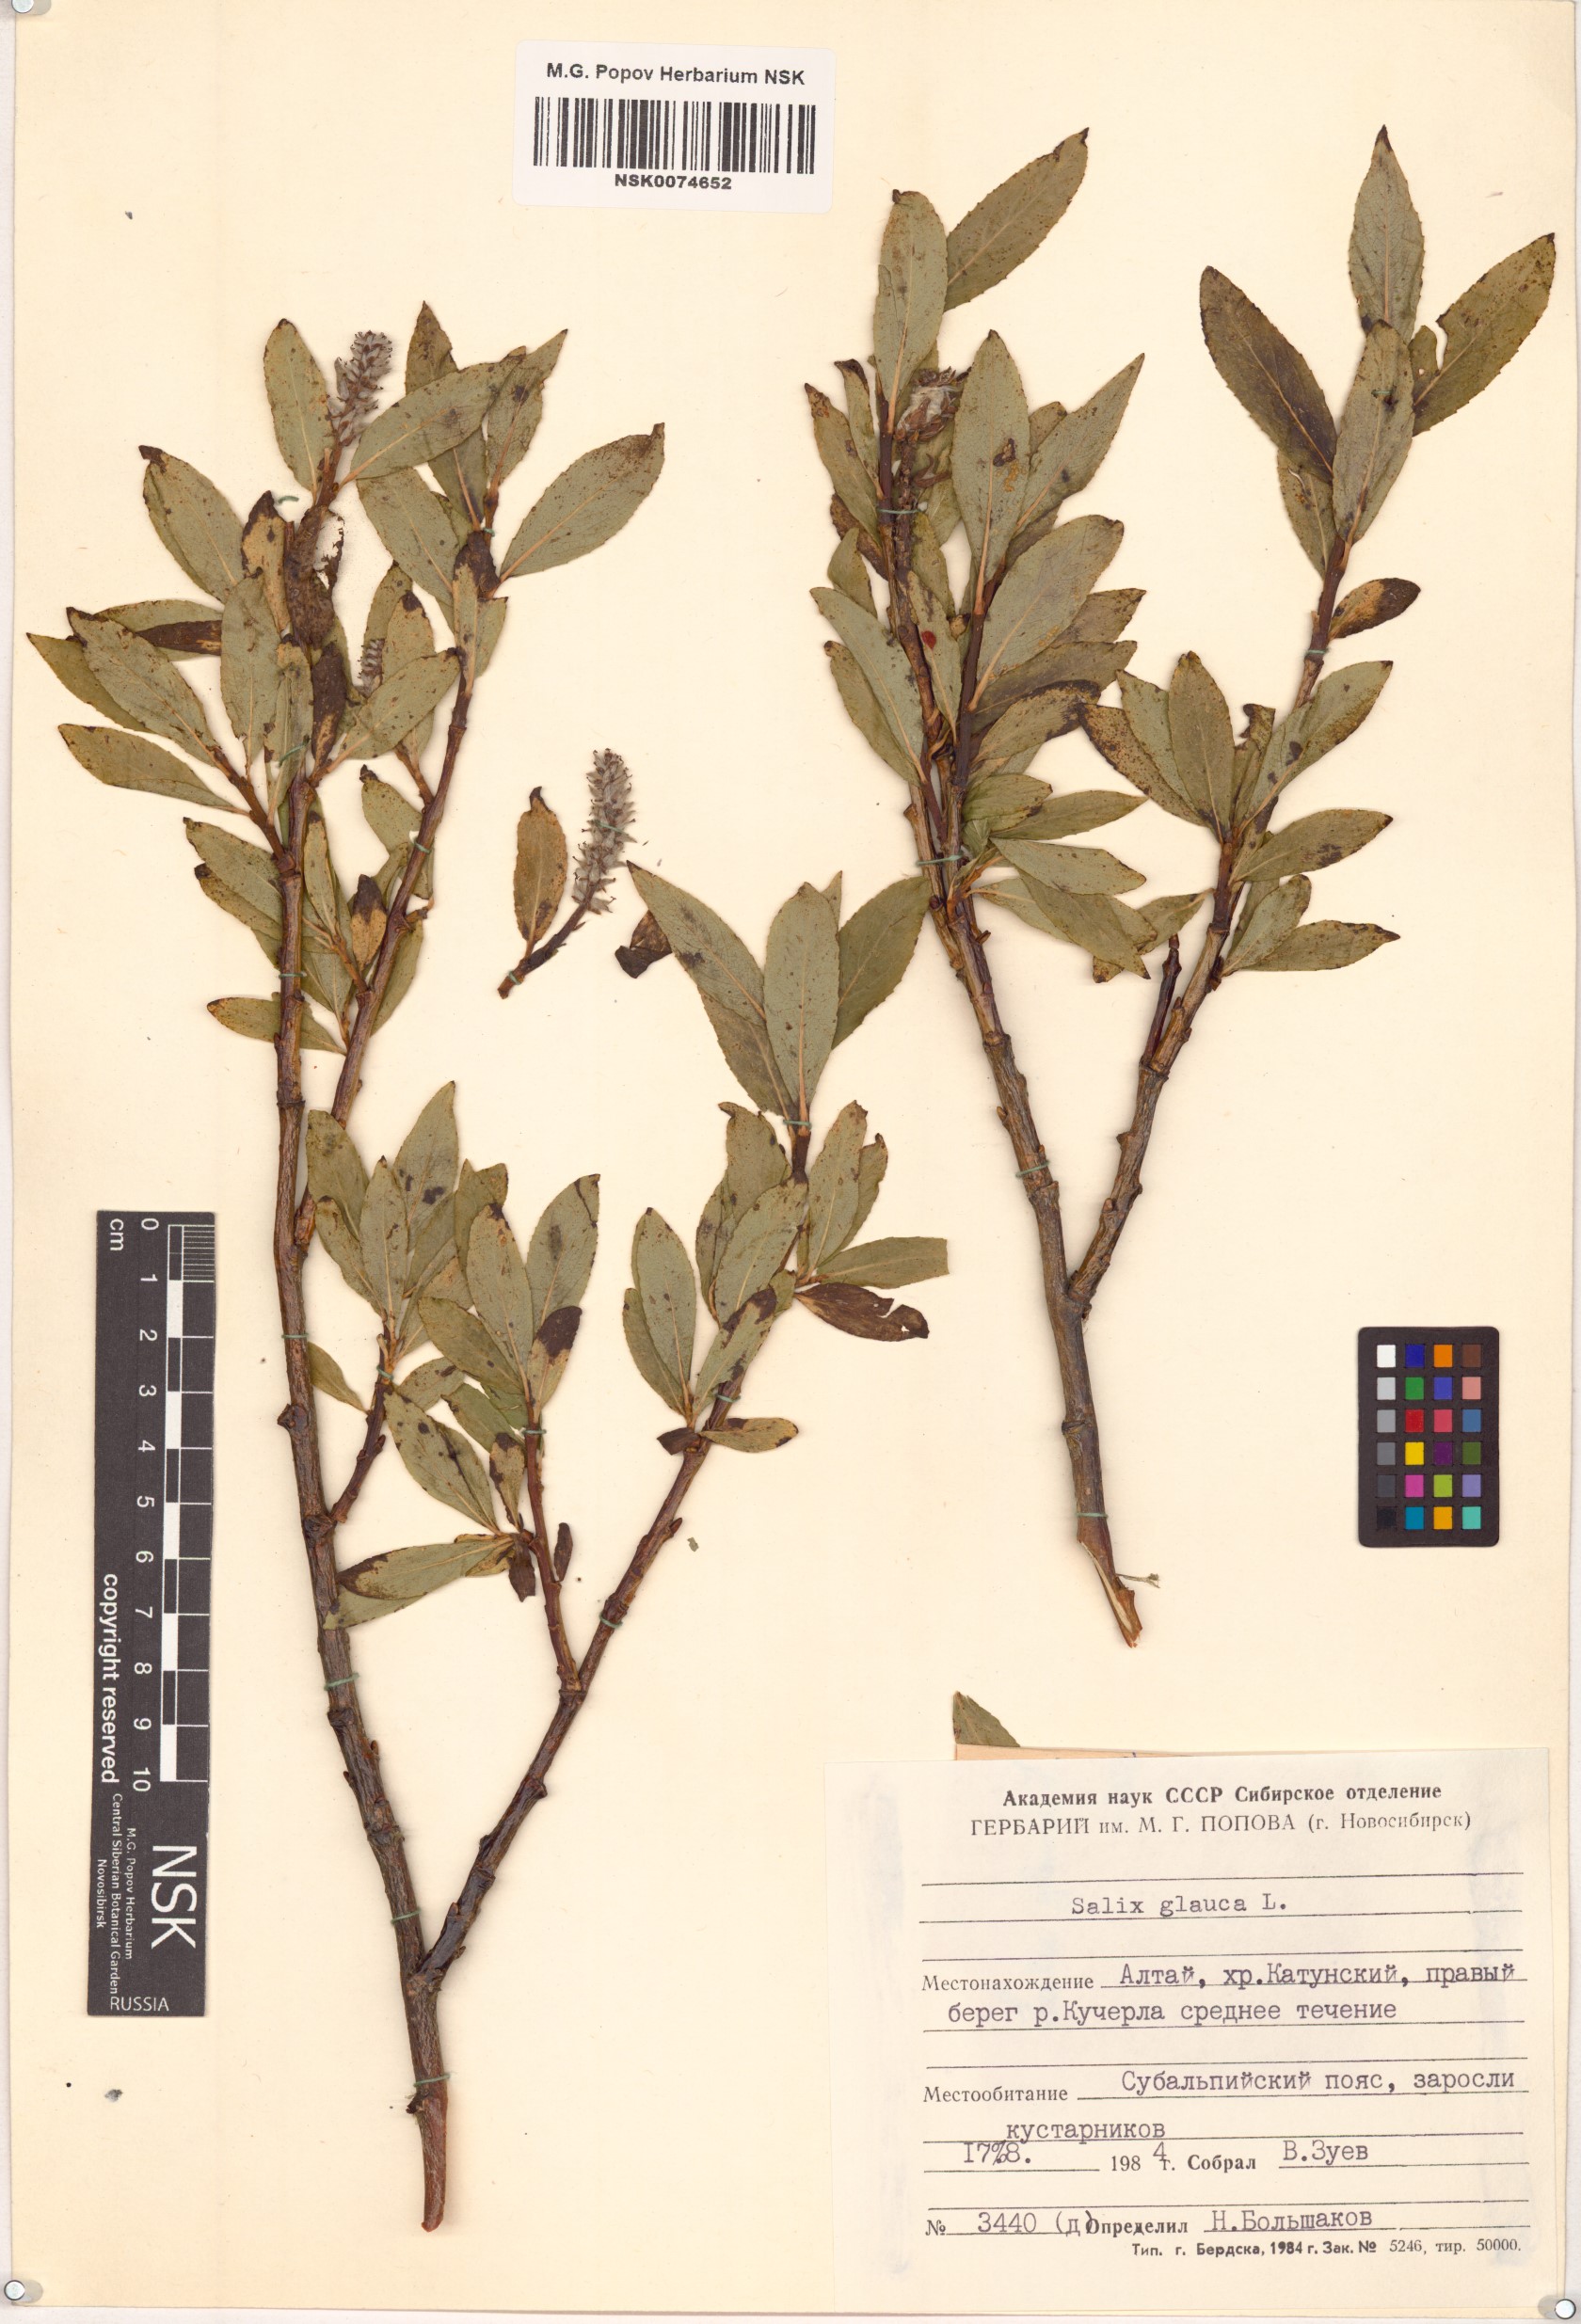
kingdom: Plantae
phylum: Tracheophyta
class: Magnoliopsida
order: Malpighiales
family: Salicaceae
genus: Salix
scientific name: Salix glauca
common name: Glaucous willow
